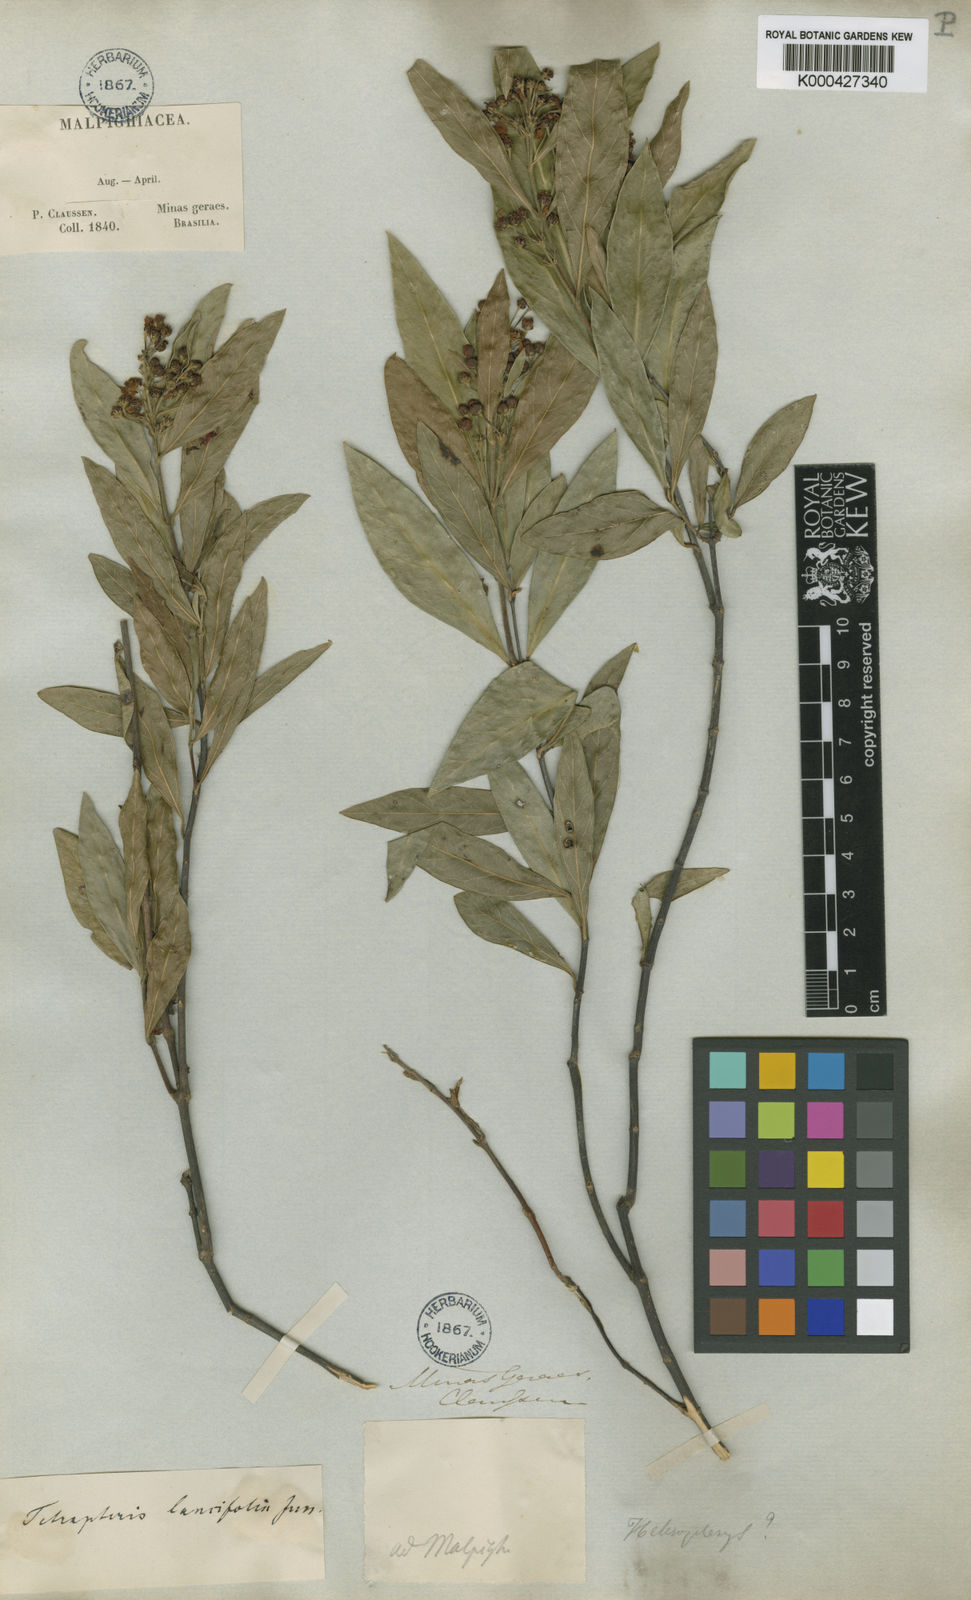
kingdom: Plantae
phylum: Tracheophyta
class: Magnoliopsida
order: Malpighiales
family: Malpighiaceae
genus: Niedenzuella
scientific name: Niedenzuella acutifolia
